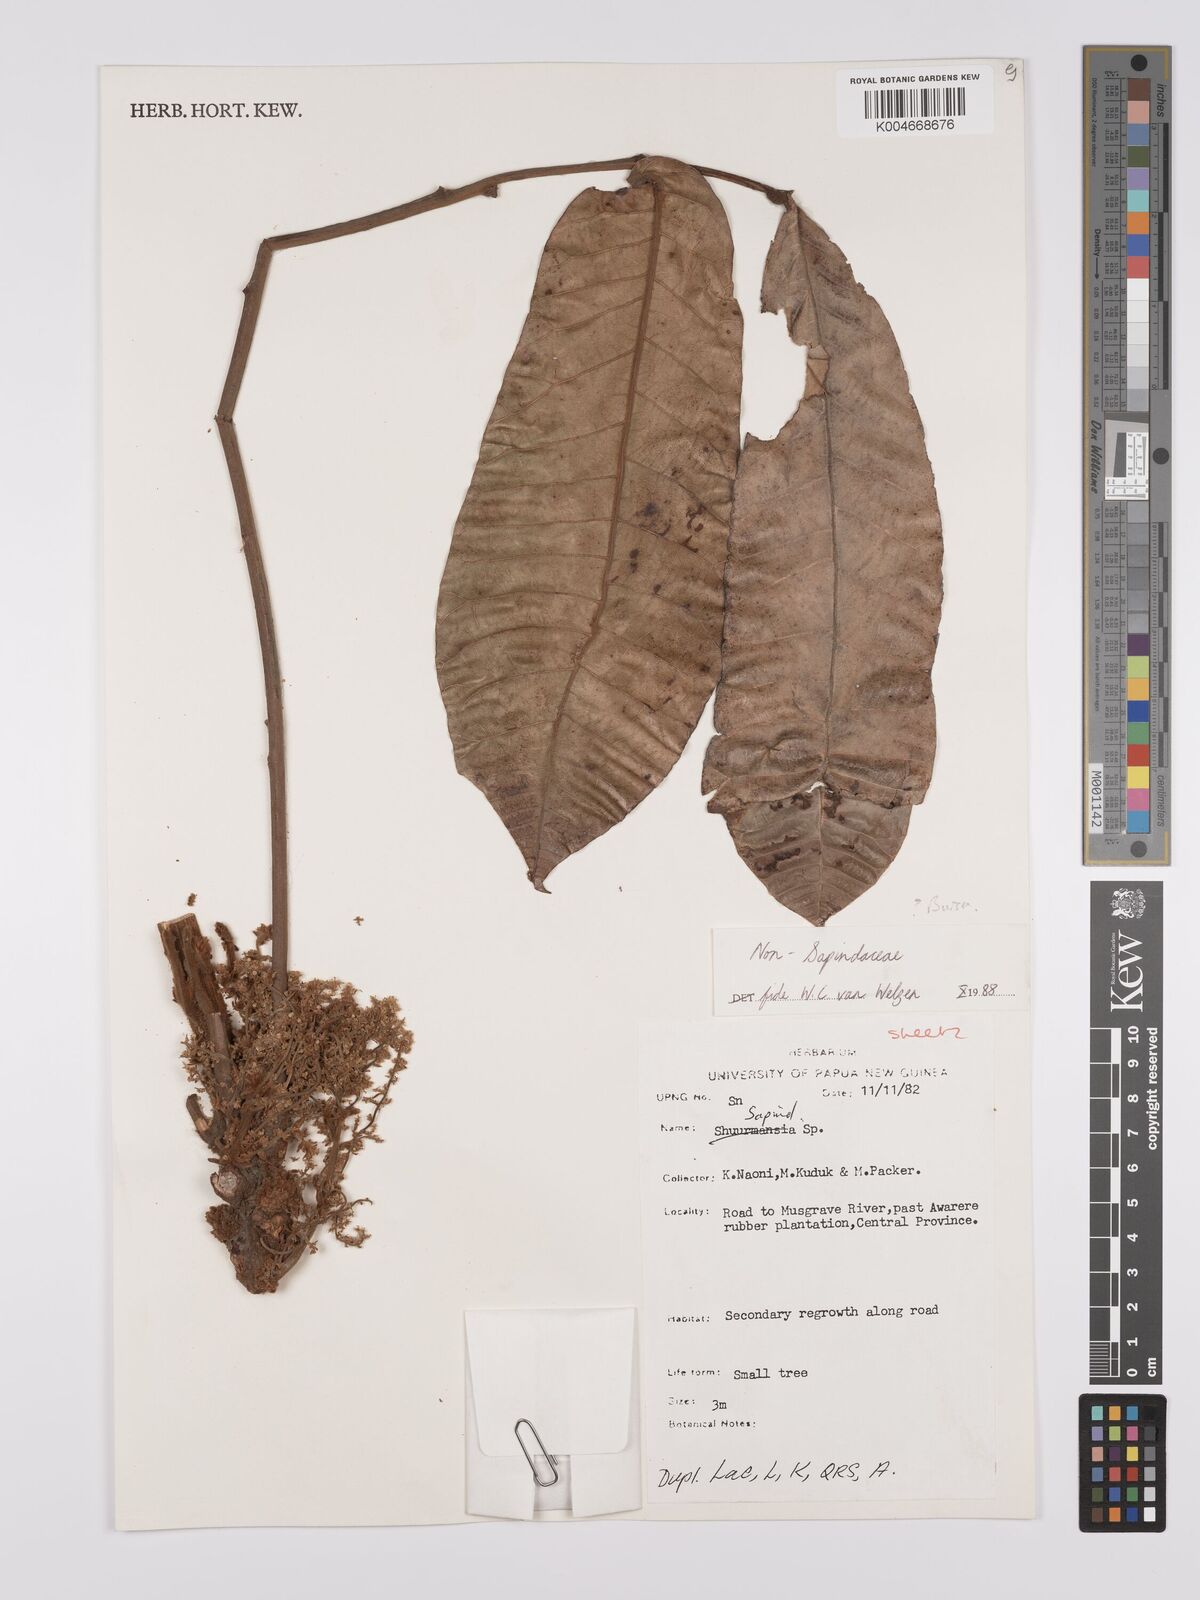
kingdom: Plantae
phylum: Tracheophyta
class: Magnoliopsida
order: Sapindales
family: Burseraceae
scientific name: Burseraceae
